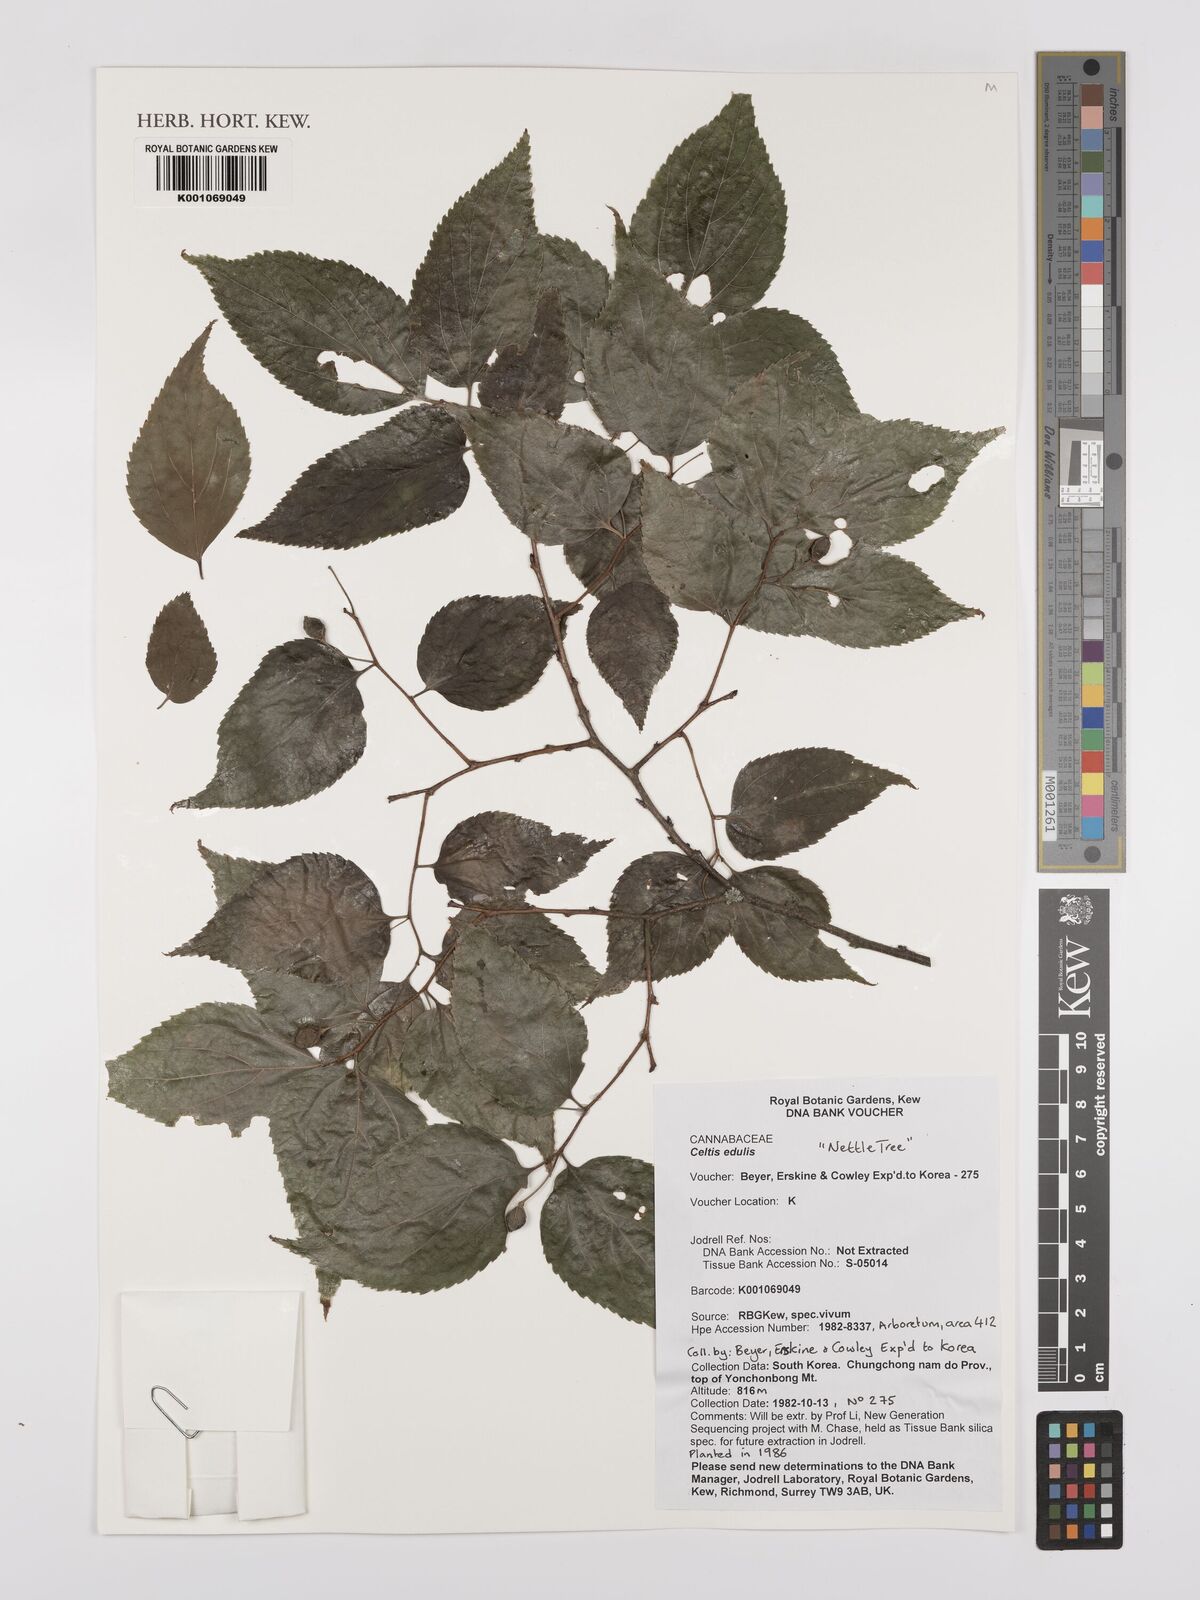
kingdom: Plantae
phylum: Tracheophyta
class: Magnoliopsida
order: Rosales
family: Cannabaceae
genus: Celtis
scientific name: Celtis jessoensis
